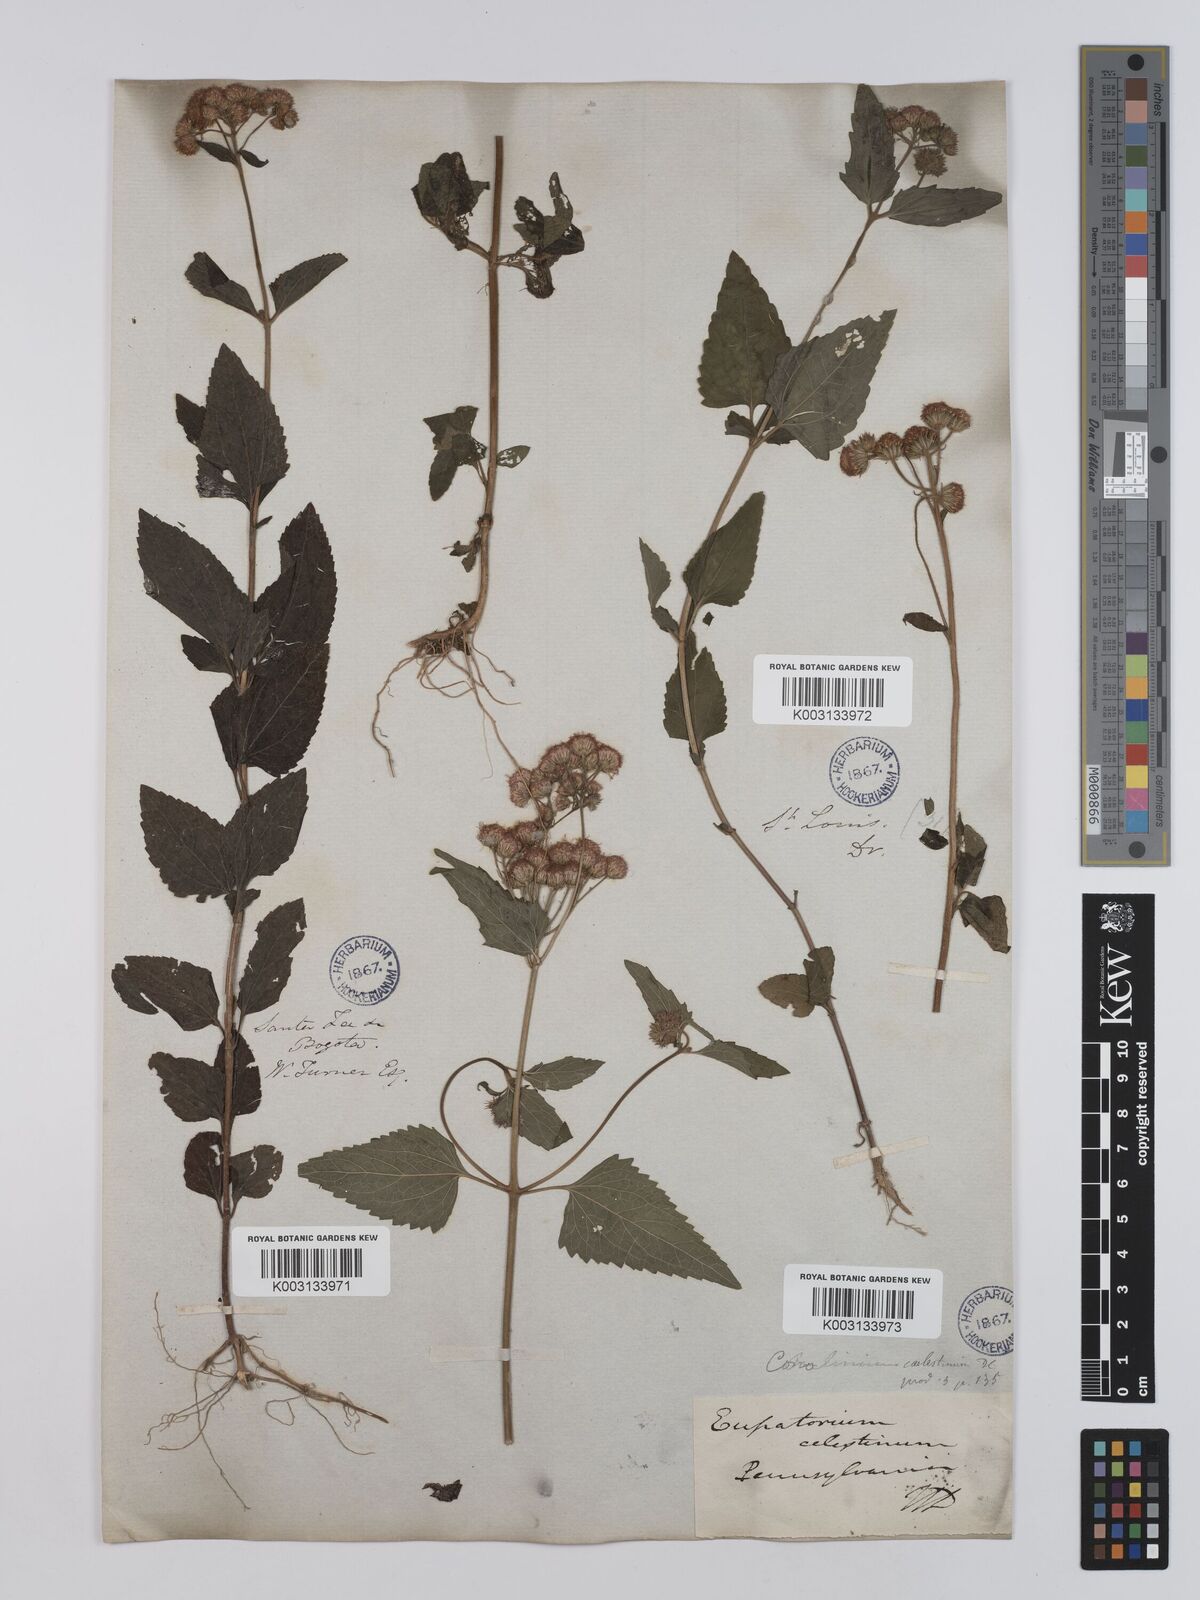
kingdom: Plantae
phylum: Tracheophyta
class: Magnoliopsida
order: Asterales
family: Asteraceae
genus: Conoclinium
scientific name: Conoclinium coelestinum
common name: Blue mistflower
